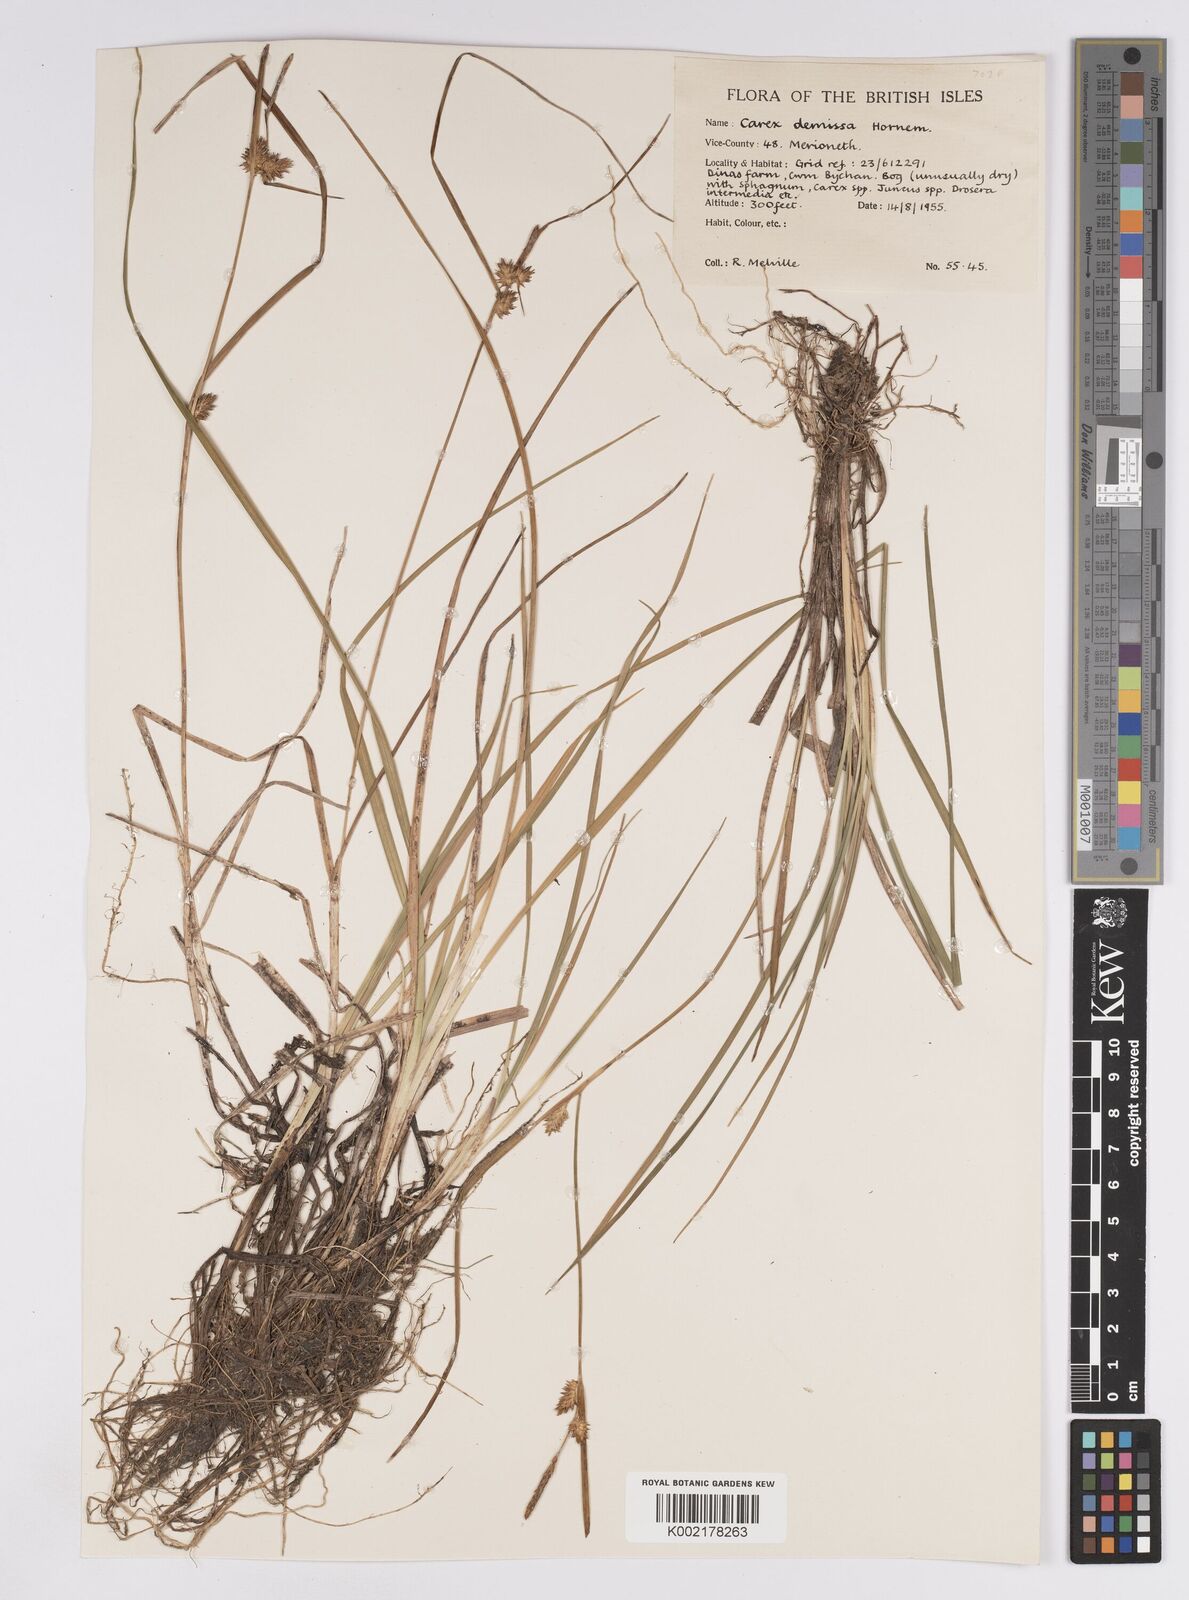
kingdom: Plantae
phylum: Tracheophyta
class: Liliopsida
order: Poales
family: Cyperaceae
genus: Carex
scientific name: Carex demissa
